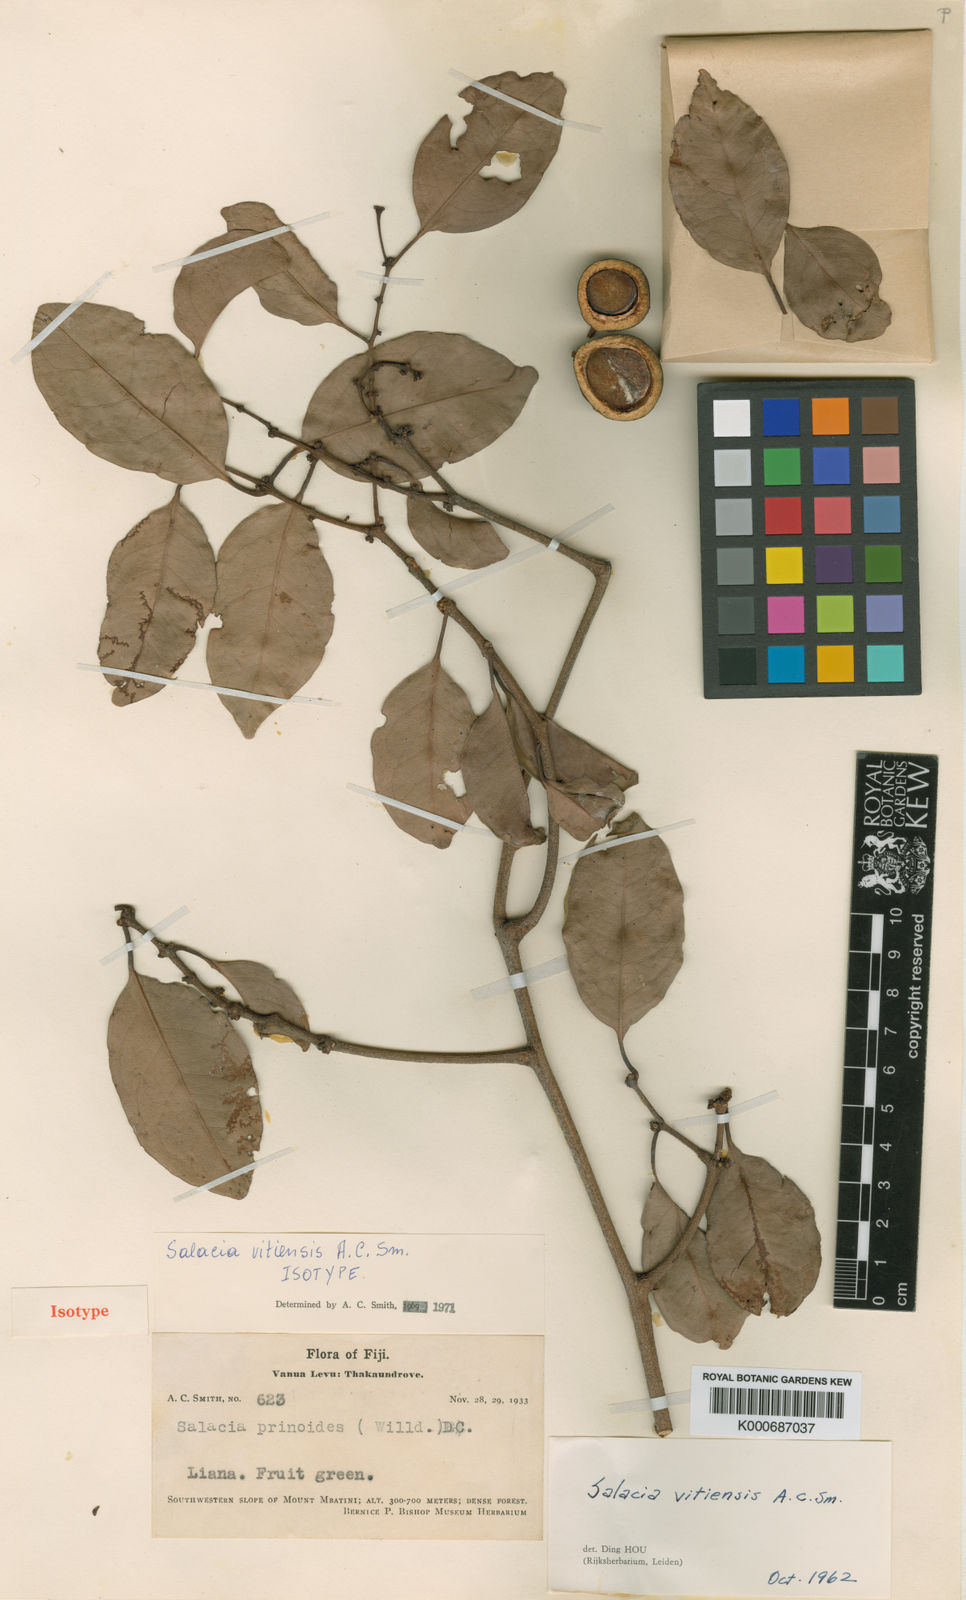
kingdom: Plantae
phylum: Tracheophyta
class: Magnoliopsida
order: Celastrales
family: Celastraceae
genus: Salacia
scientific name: Salacia vitiensis
